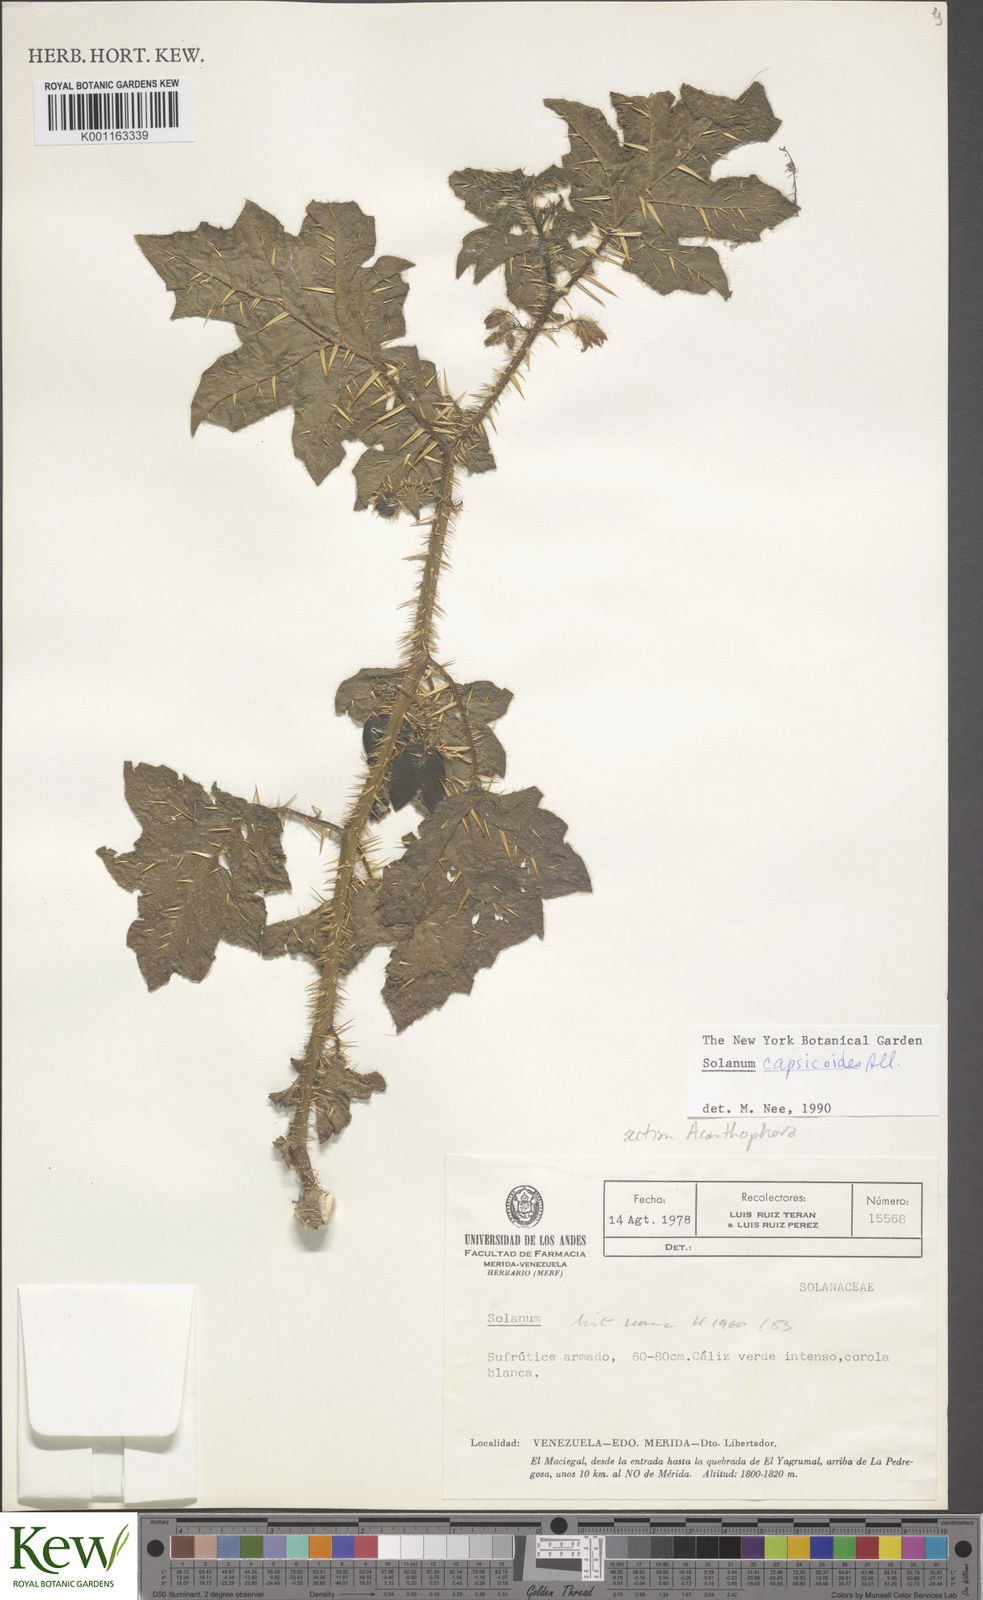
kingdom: Plantae
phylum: Tracheophyta
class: Magnoliopsida
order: Solanales
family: Solanaceae
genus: Solanum
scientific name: Solanum capsicoides
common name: Cockroach berry
